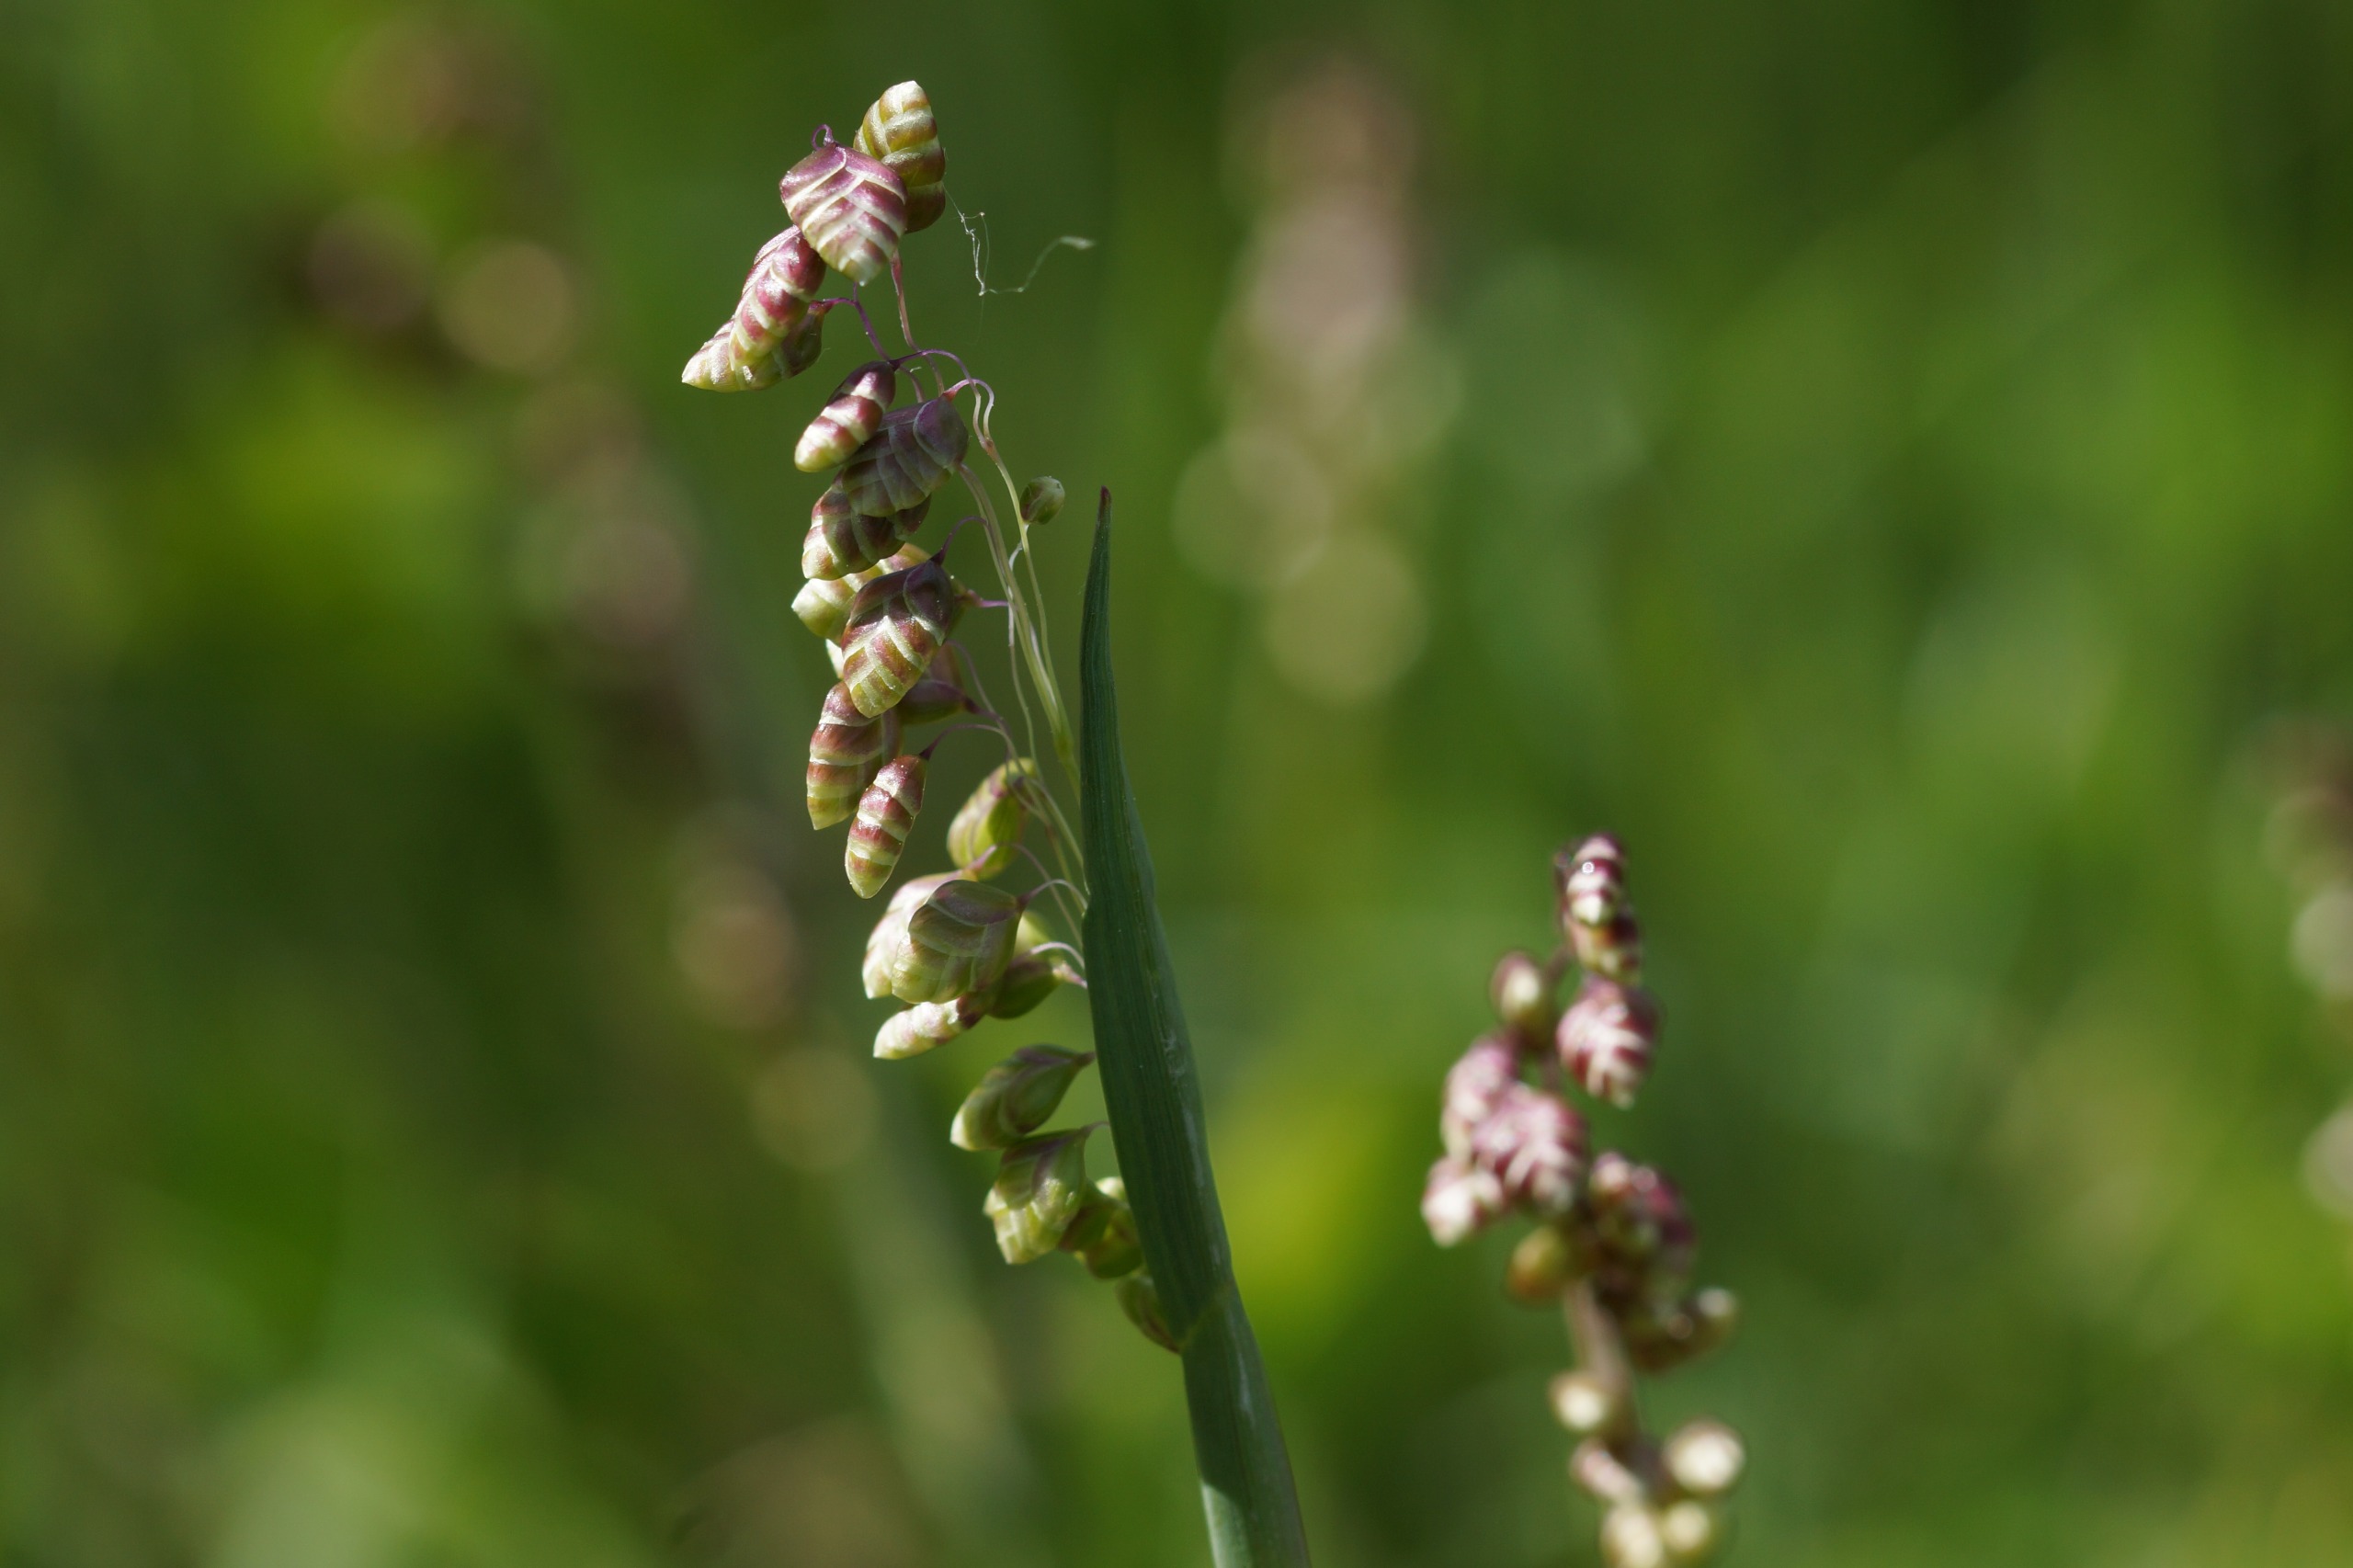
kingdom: Plantae
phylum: Tracheophyta
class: Liliopsida
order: Poales
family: Poaceae
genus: Briza
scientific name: Briza media
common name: Hjertegræs
